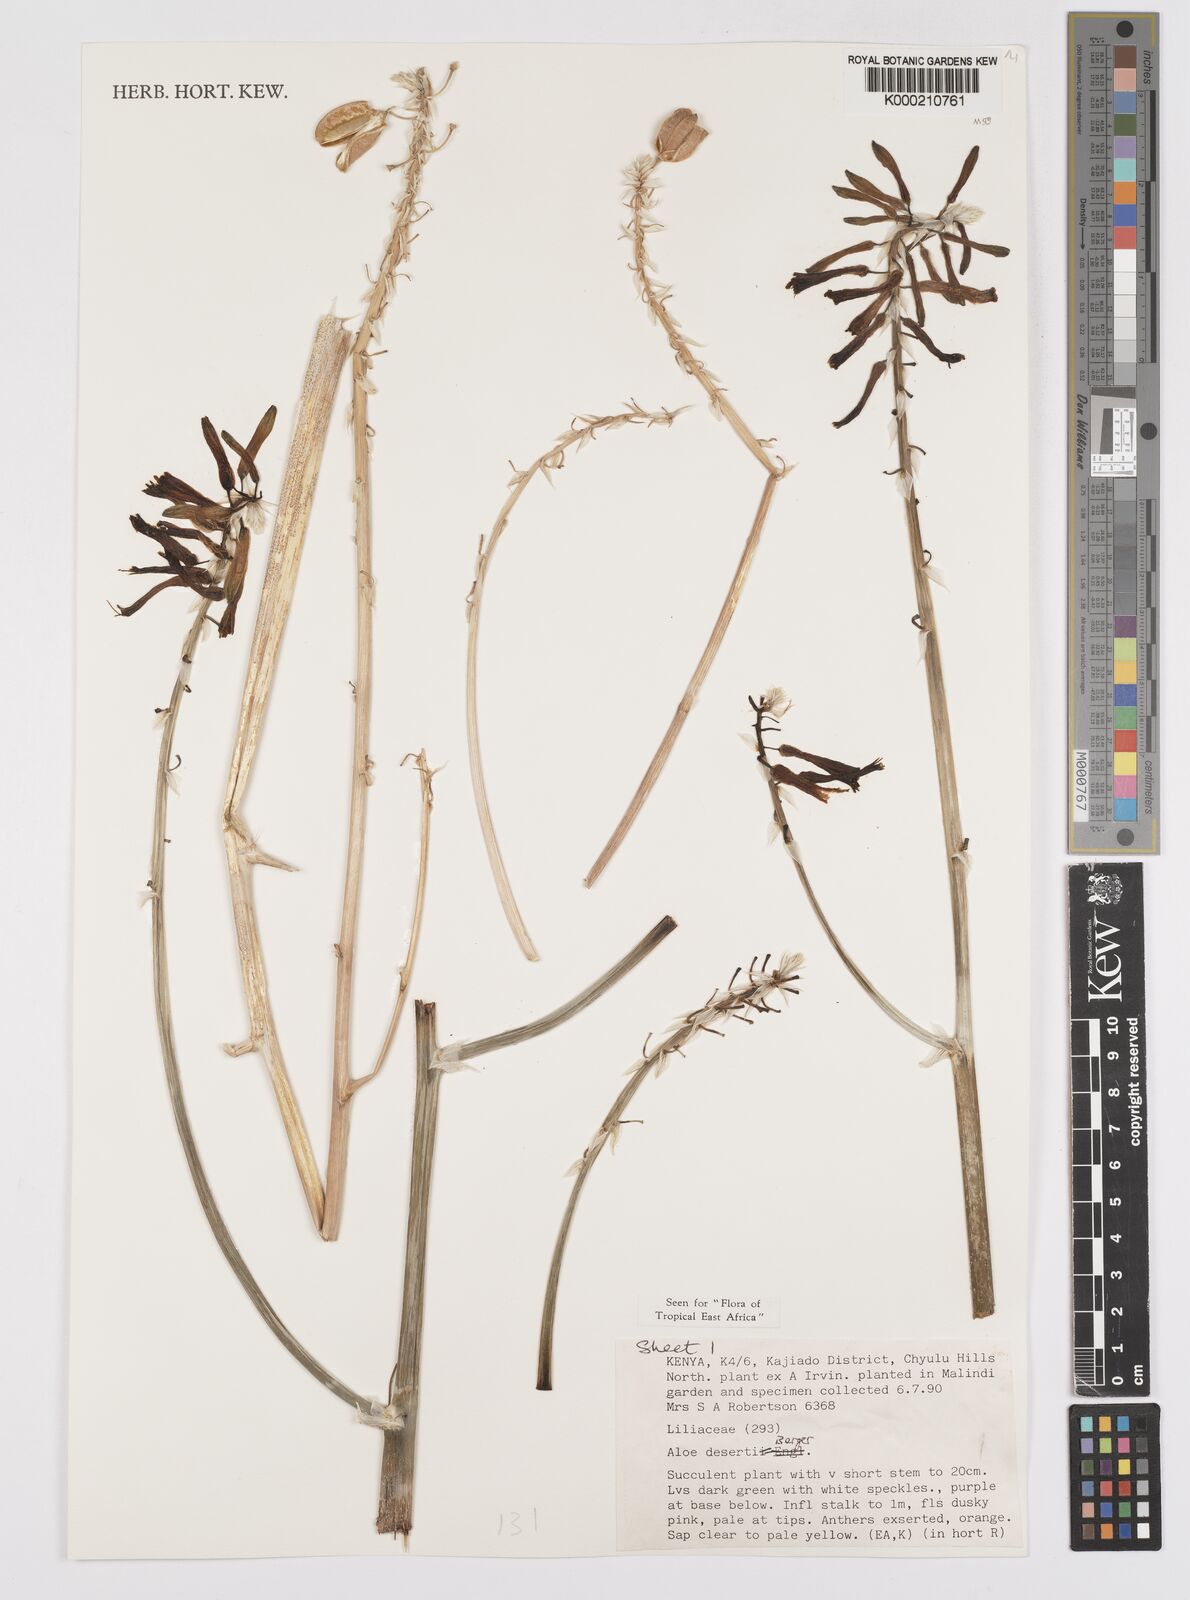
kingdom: Plantae
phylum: Tracheophyta
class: Liliopsida
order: Asparagales
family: Asphodelaceae
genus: Aloe
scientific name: Aloe deserti
